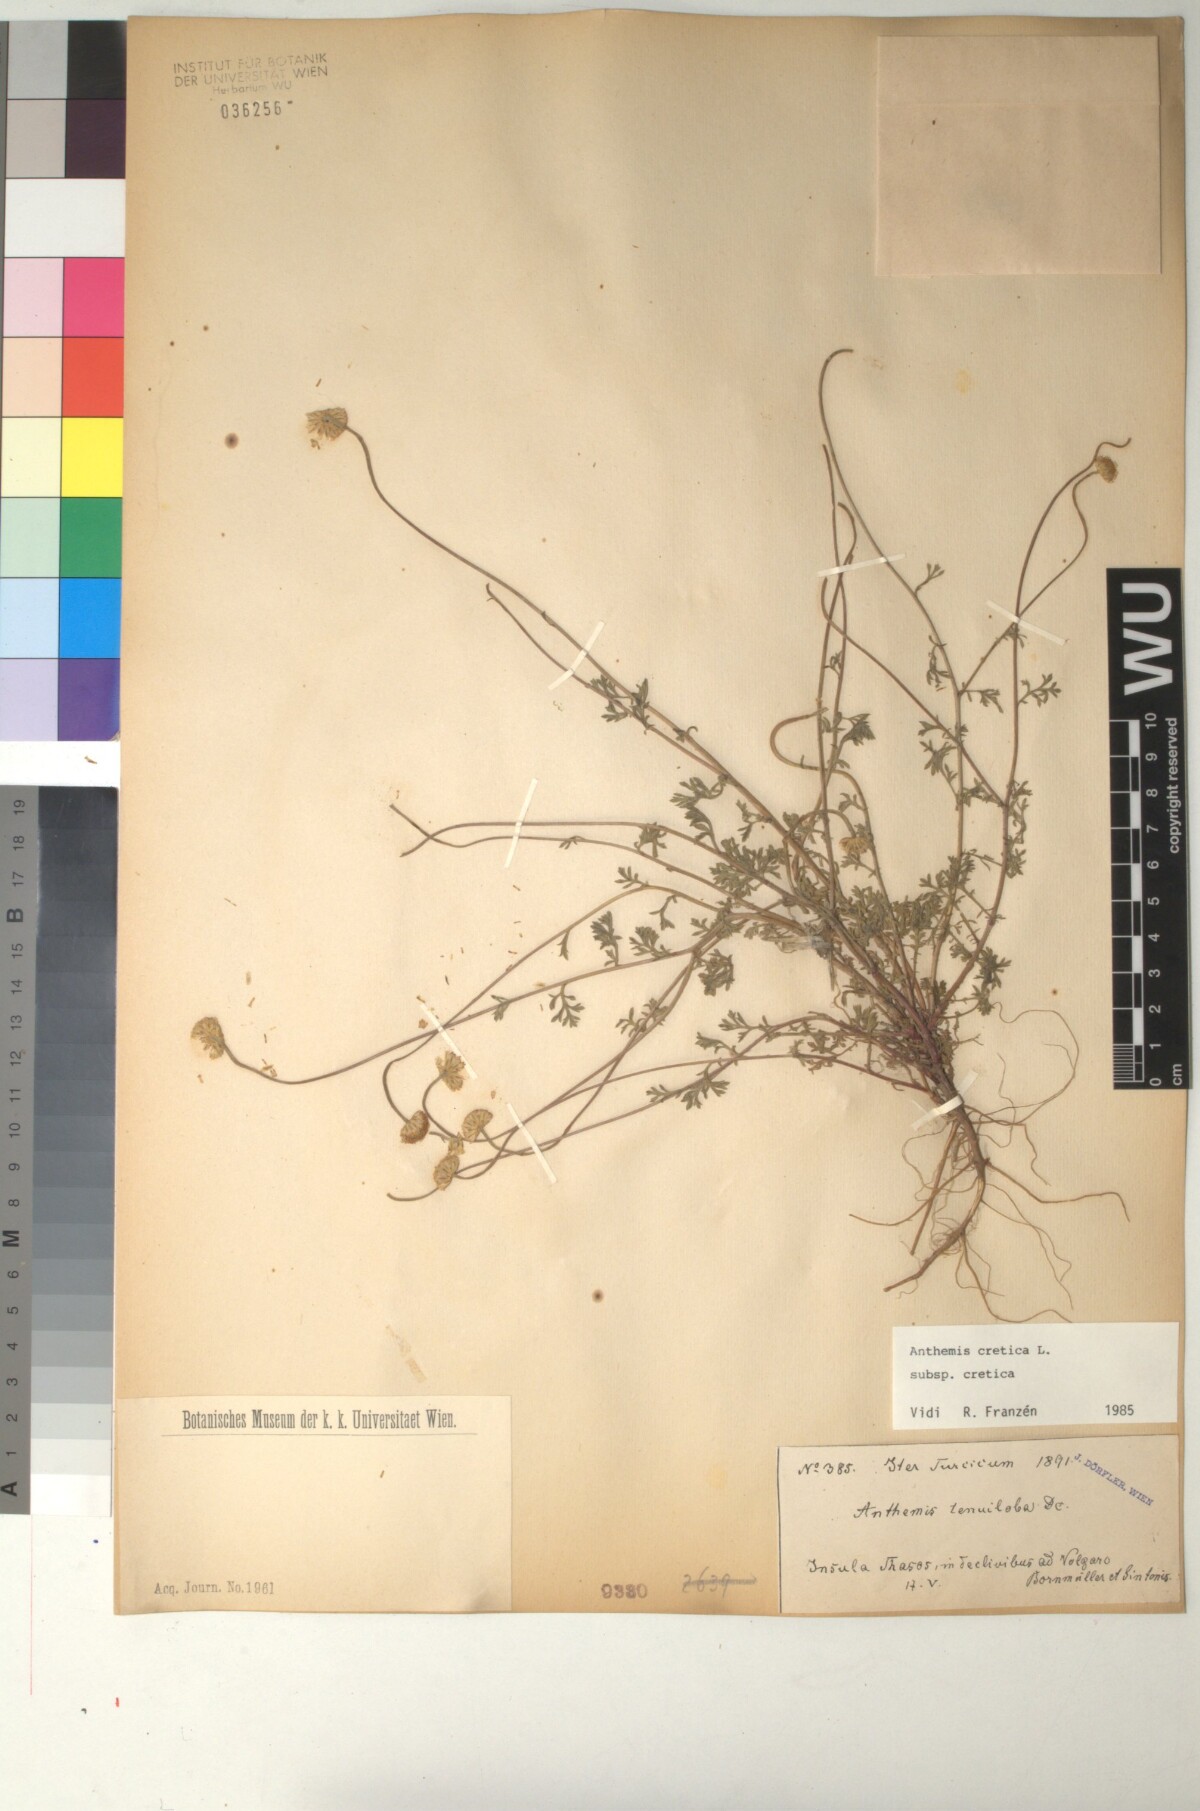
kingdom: Plantae
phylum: Tracheophyta
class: Magnoliopsida
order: Asterales
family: Asteraceae
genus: Anthemis
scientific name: Anthemis cretica
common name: Mountain dog-daisy
